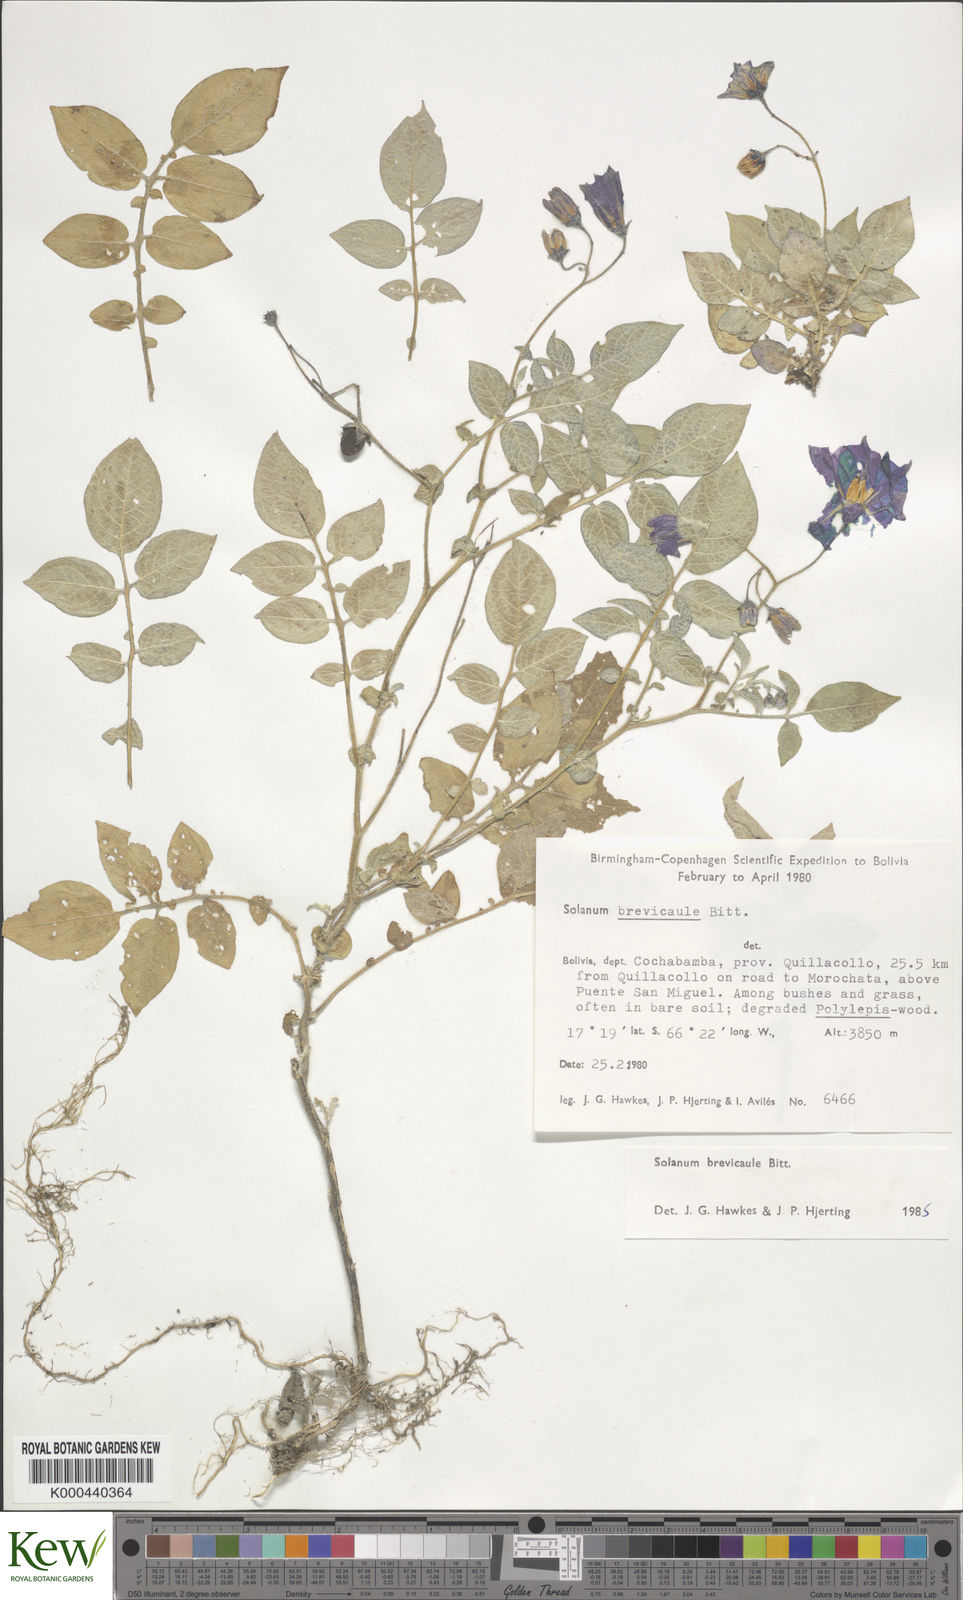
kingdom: Plantae
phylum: Tracheophyta
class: Magnoliopsida
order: Solanales
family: Solanaceae
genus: Solanum
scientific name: Solanum brevicaule
